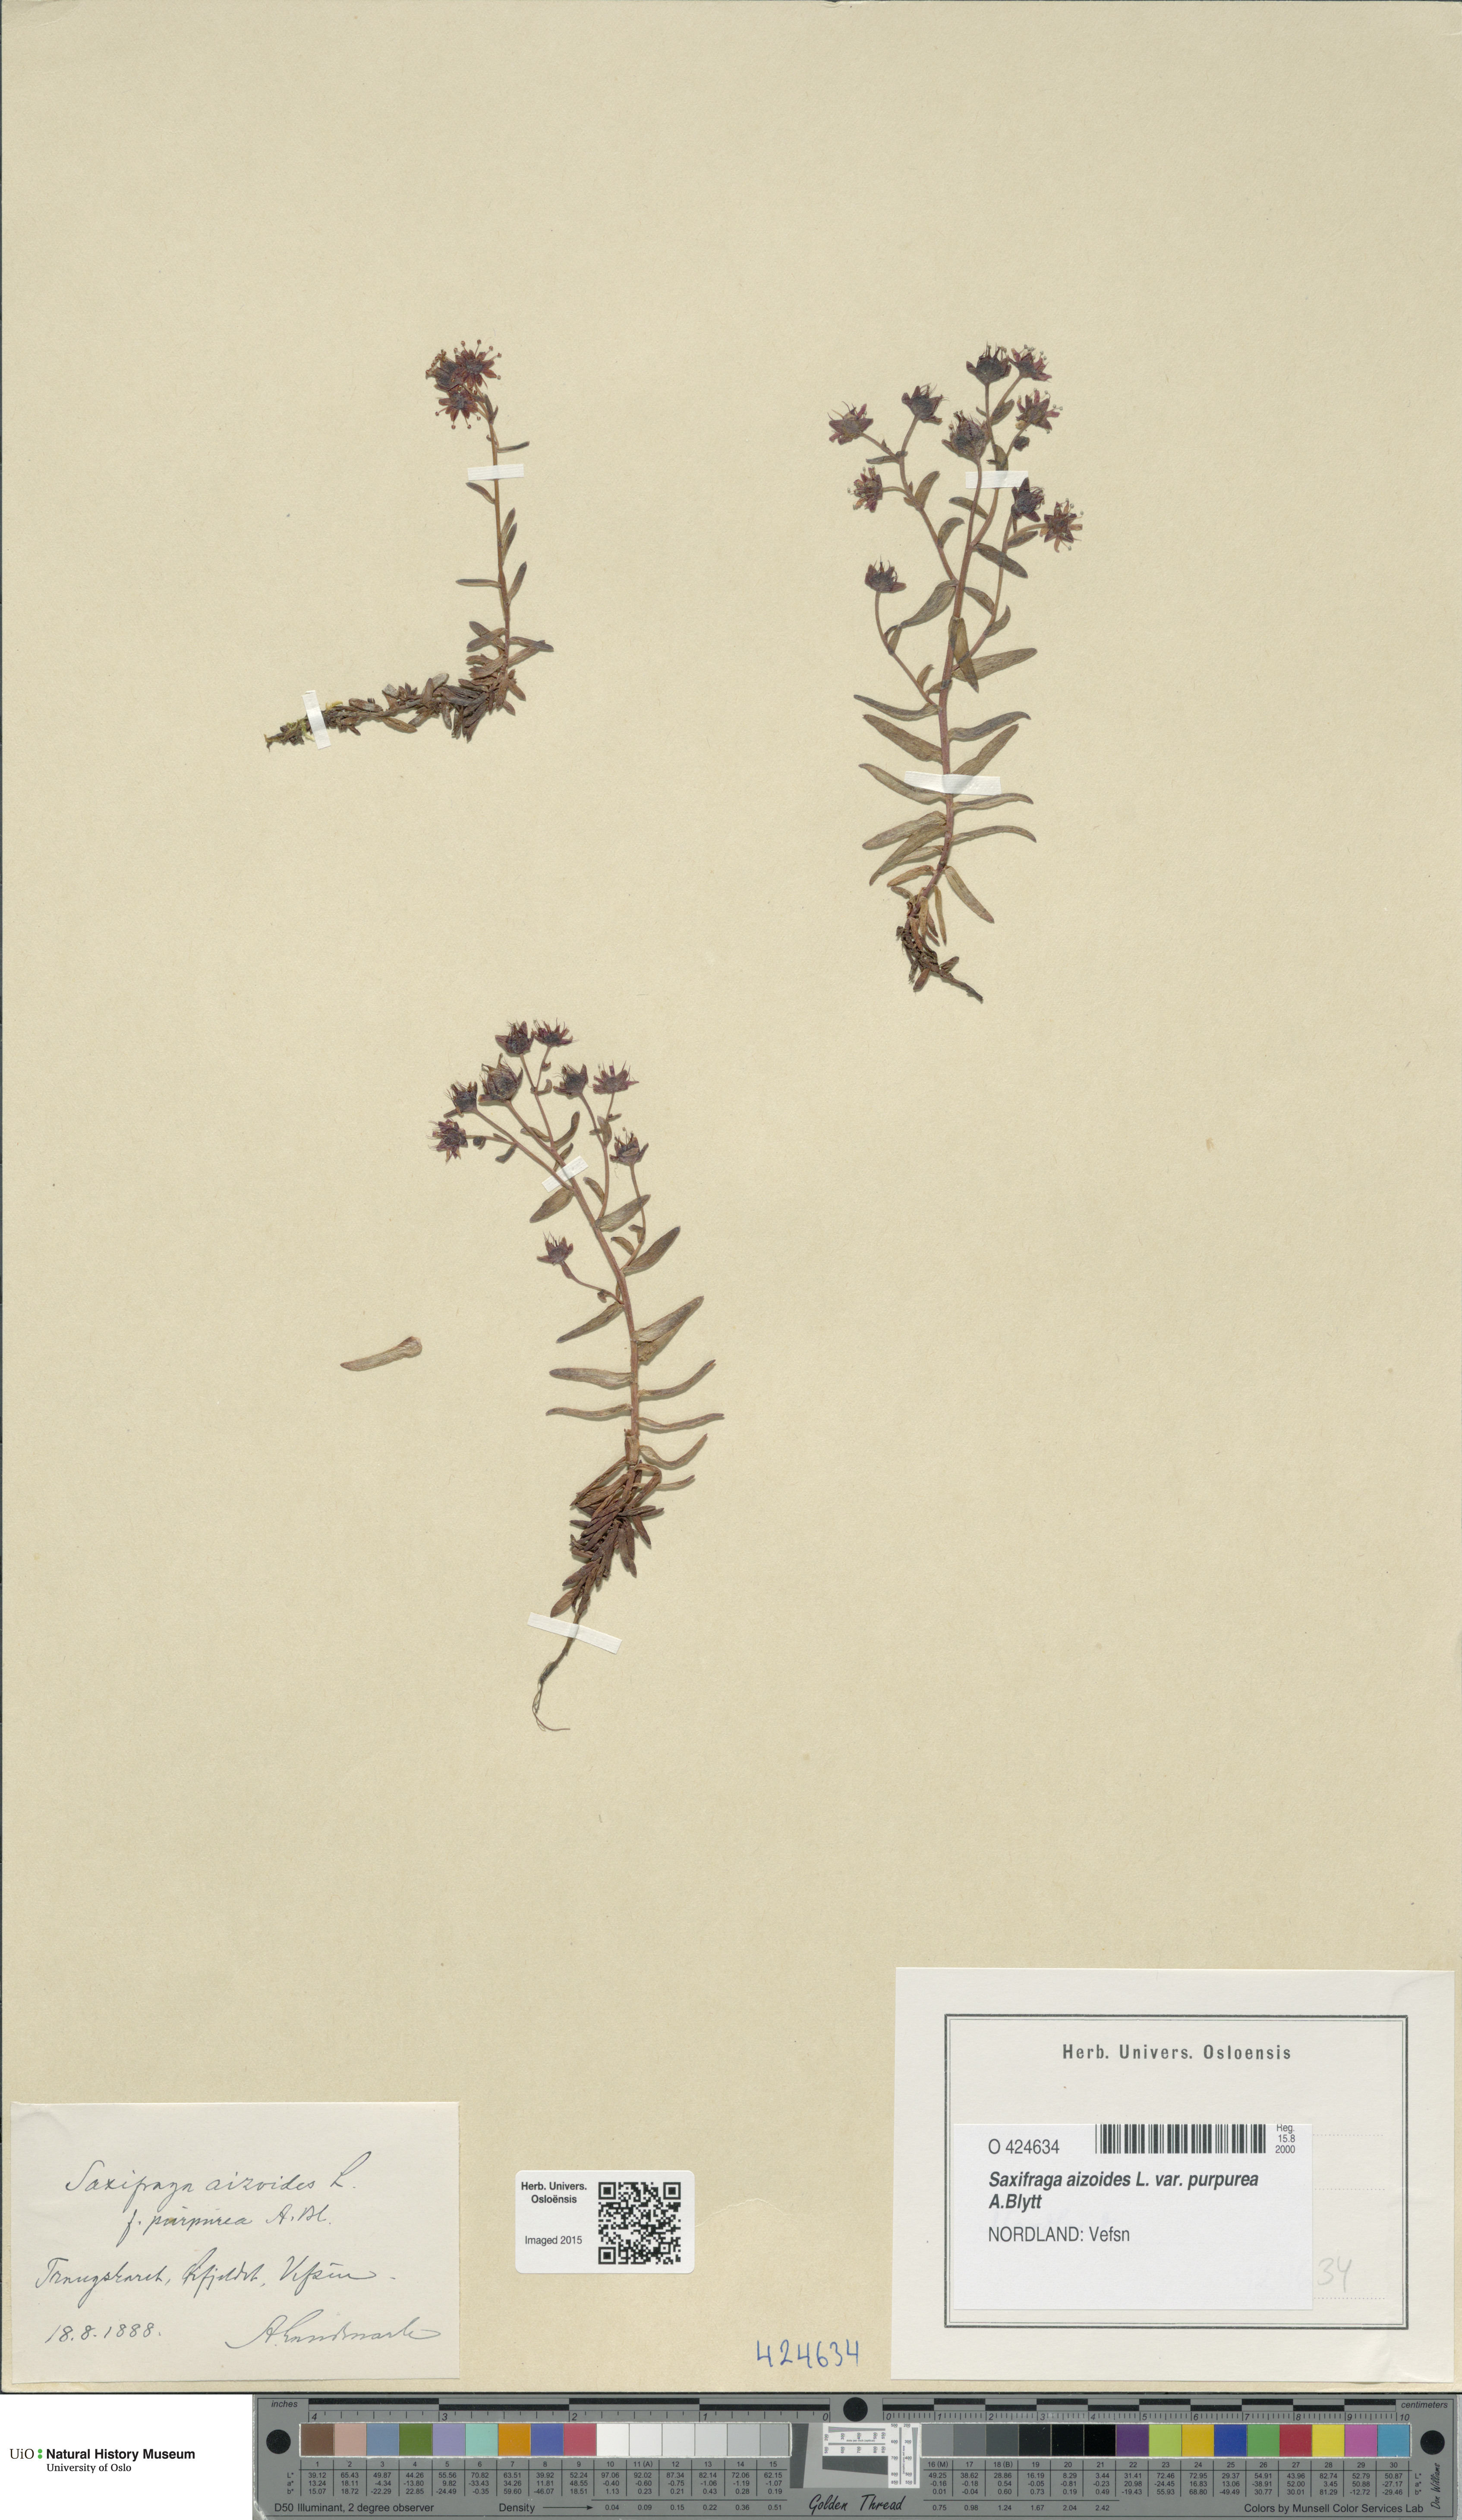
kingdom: Plantae
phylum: Tracheophyta
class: Magnoliopsida
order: Saxifragales
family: Saxifragaceae
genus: Saxifraga
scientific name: Saxifraga aizoides
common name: Yellow mountain saxifrage
